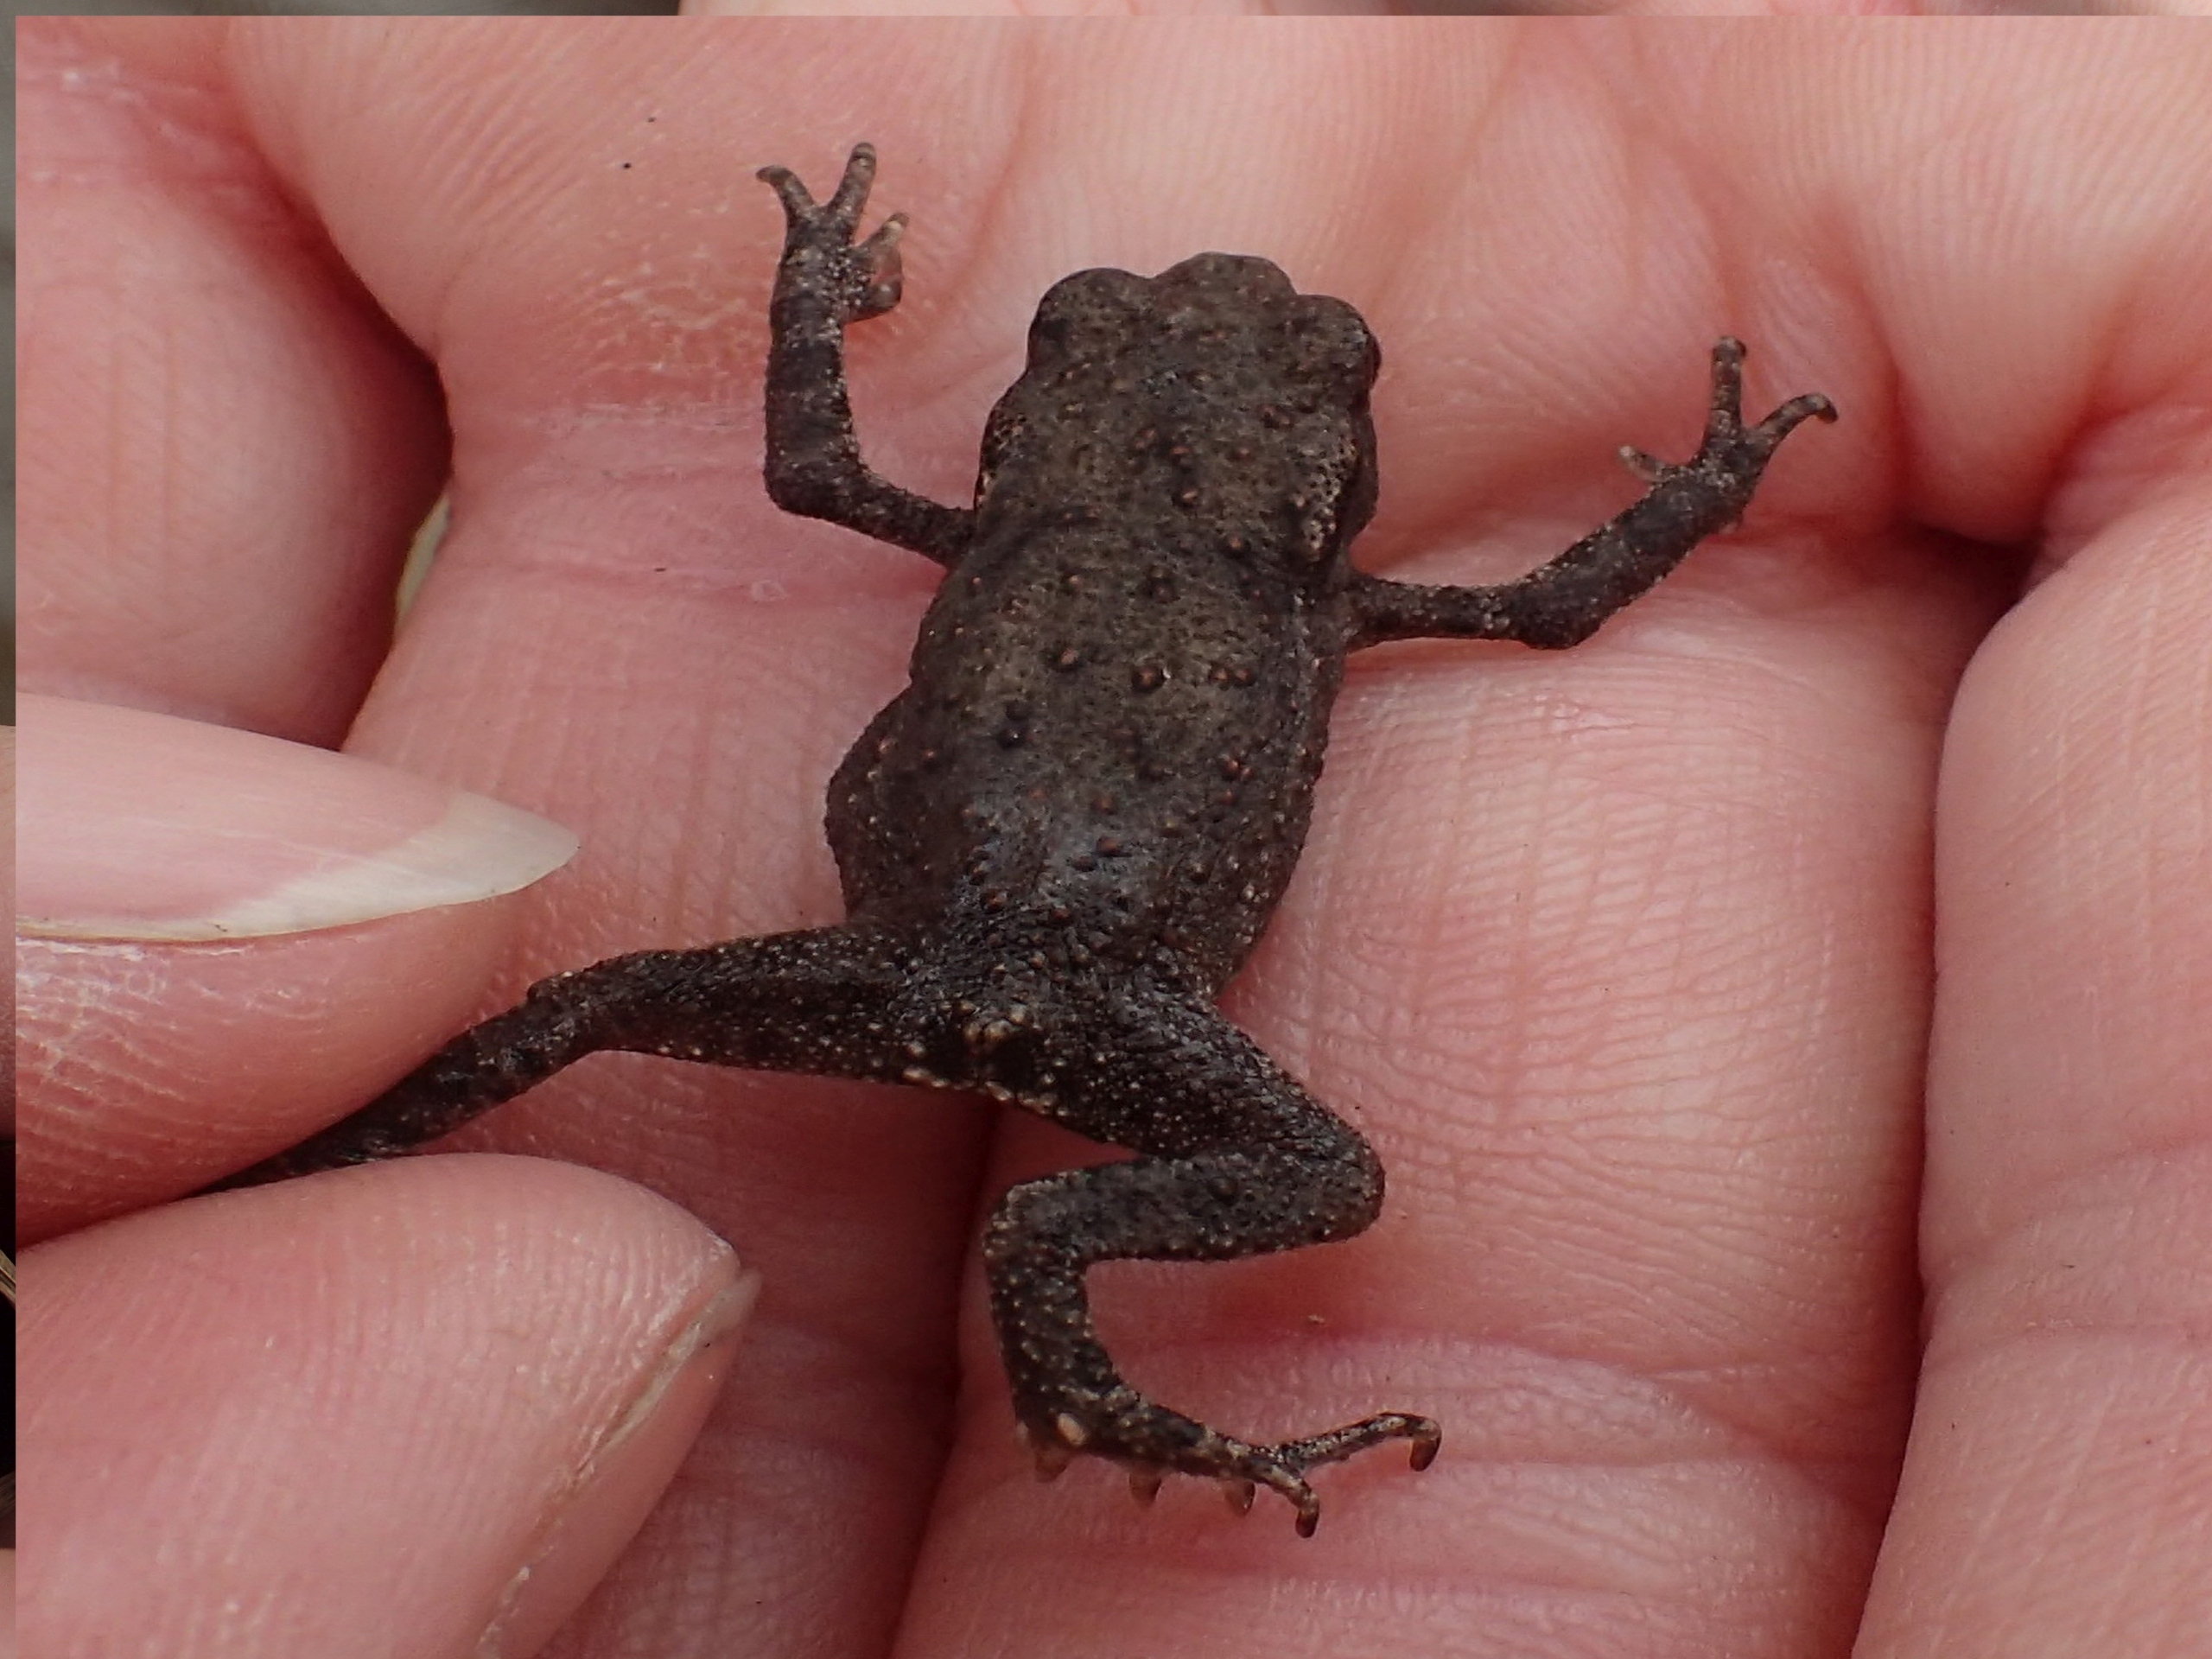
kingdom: Animalia
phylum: Chordata
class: Amphibia
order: Anura
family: Bufonidae
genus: Bufo
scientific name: Bufo bufo
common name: Skrubtudse
